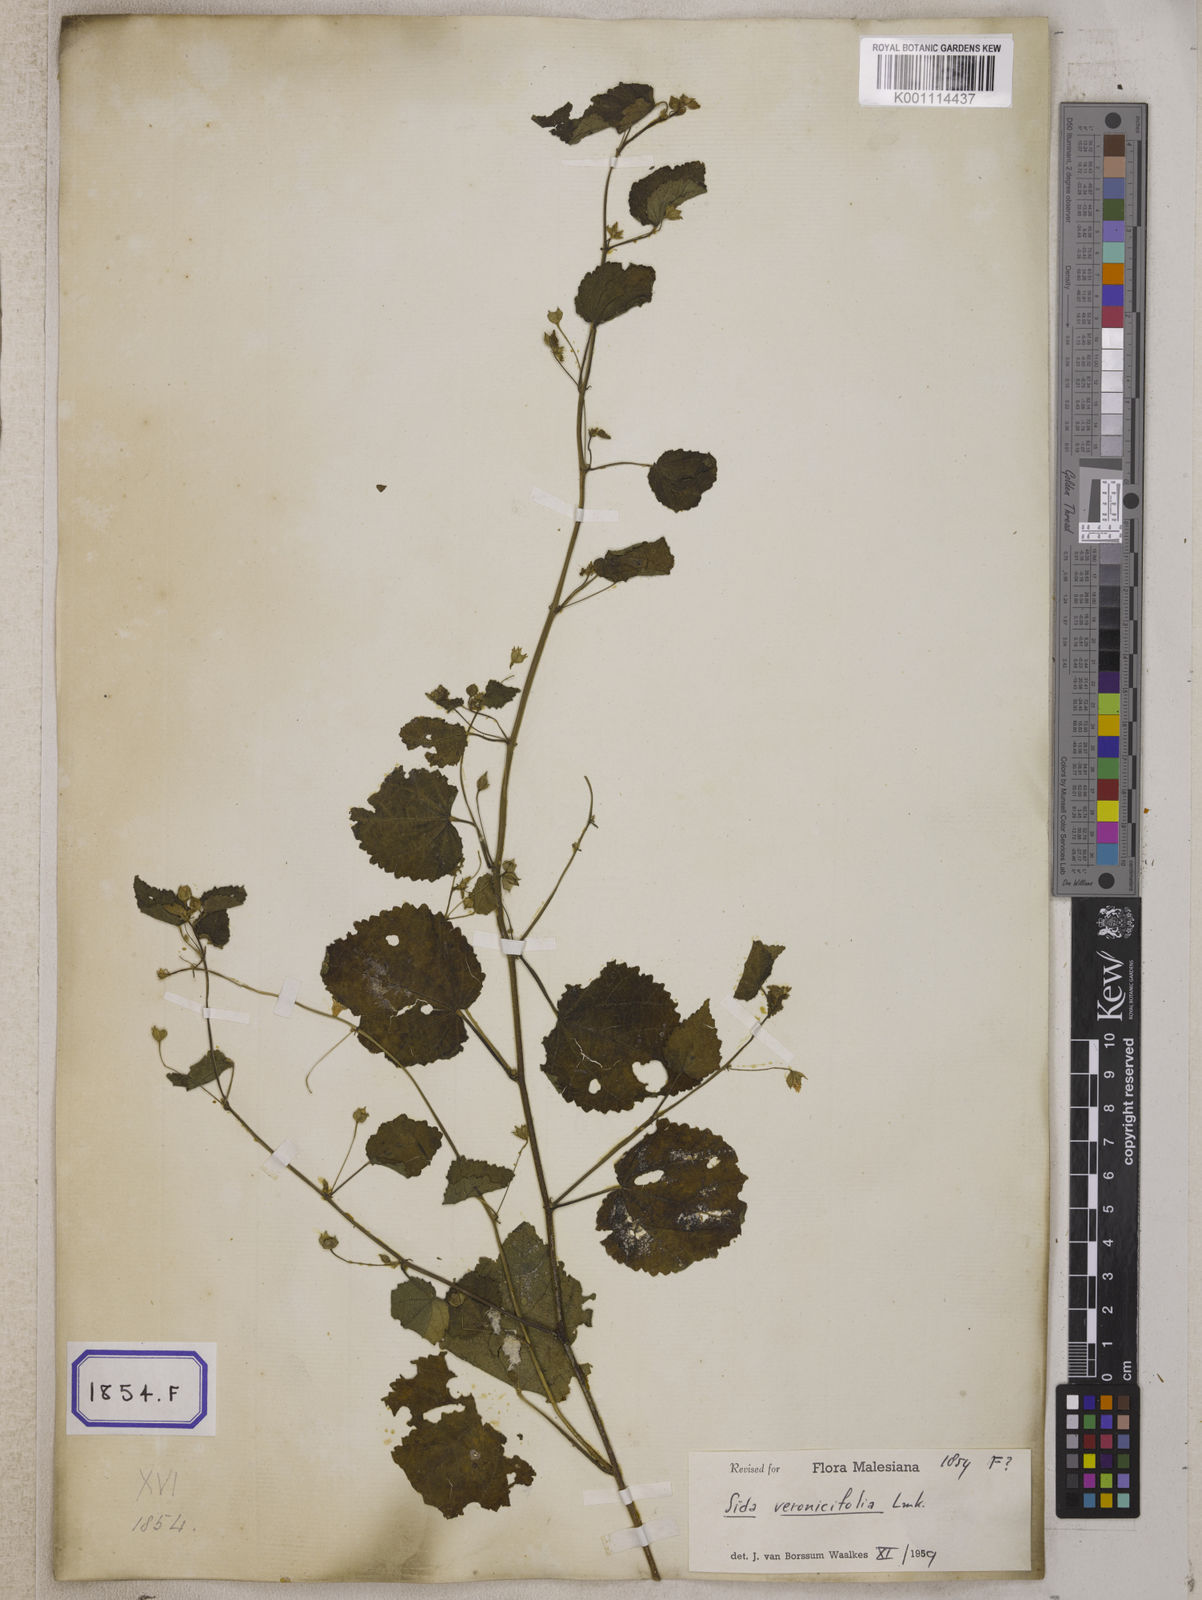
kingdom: Plantae
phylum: Tracheophyta
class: Magnoliopsida
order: Malvales
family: Malvaceae
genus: Sida
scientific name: Sida cordata
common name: Long-stalk sida
